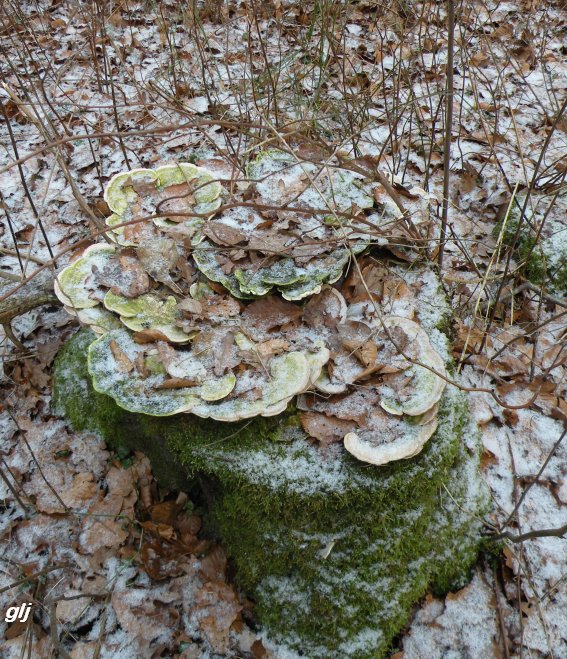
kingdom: Fungi
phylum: Basidiomycota
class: Agaricomycetes
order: Polyporales
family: Polyporaceae
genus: Trametes
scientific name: Trametes gibbosa
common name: puklet læderporesvamp
